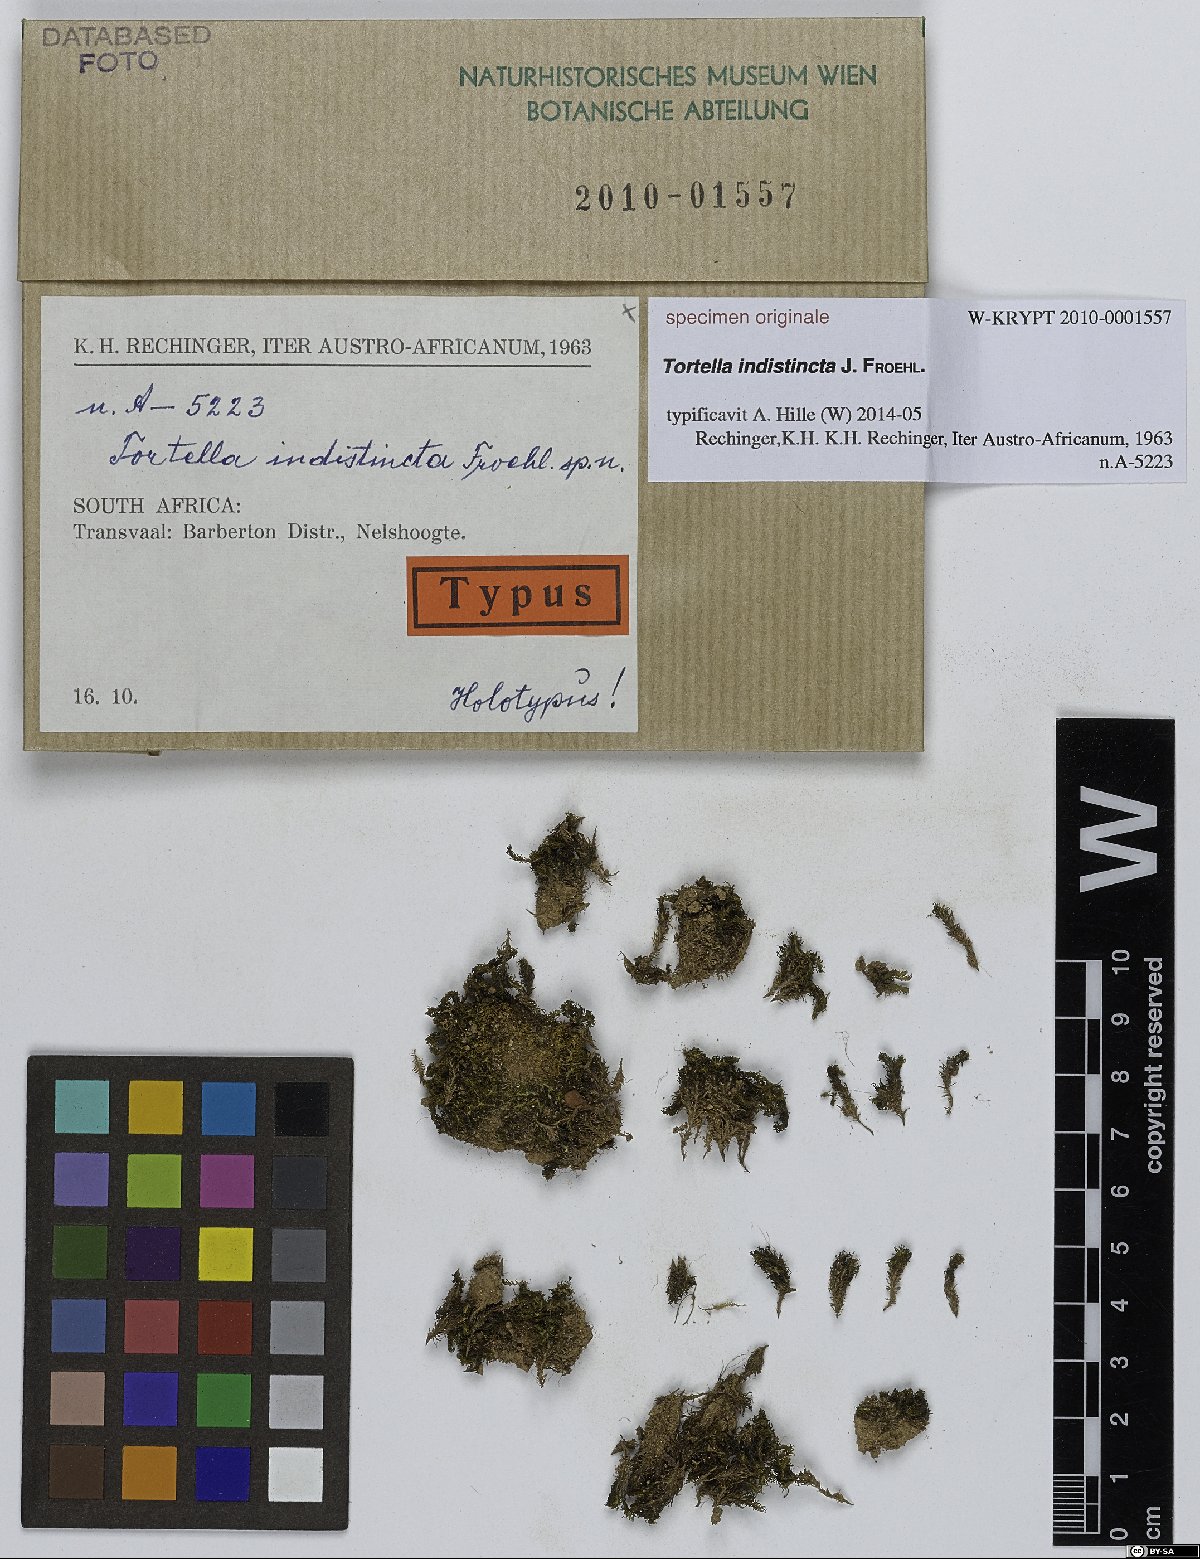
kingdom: Plantae
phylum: Bryophyta
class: Bryopsida
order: Pottiales
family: Pottiaceae
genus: Tortella
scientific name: Tortella
